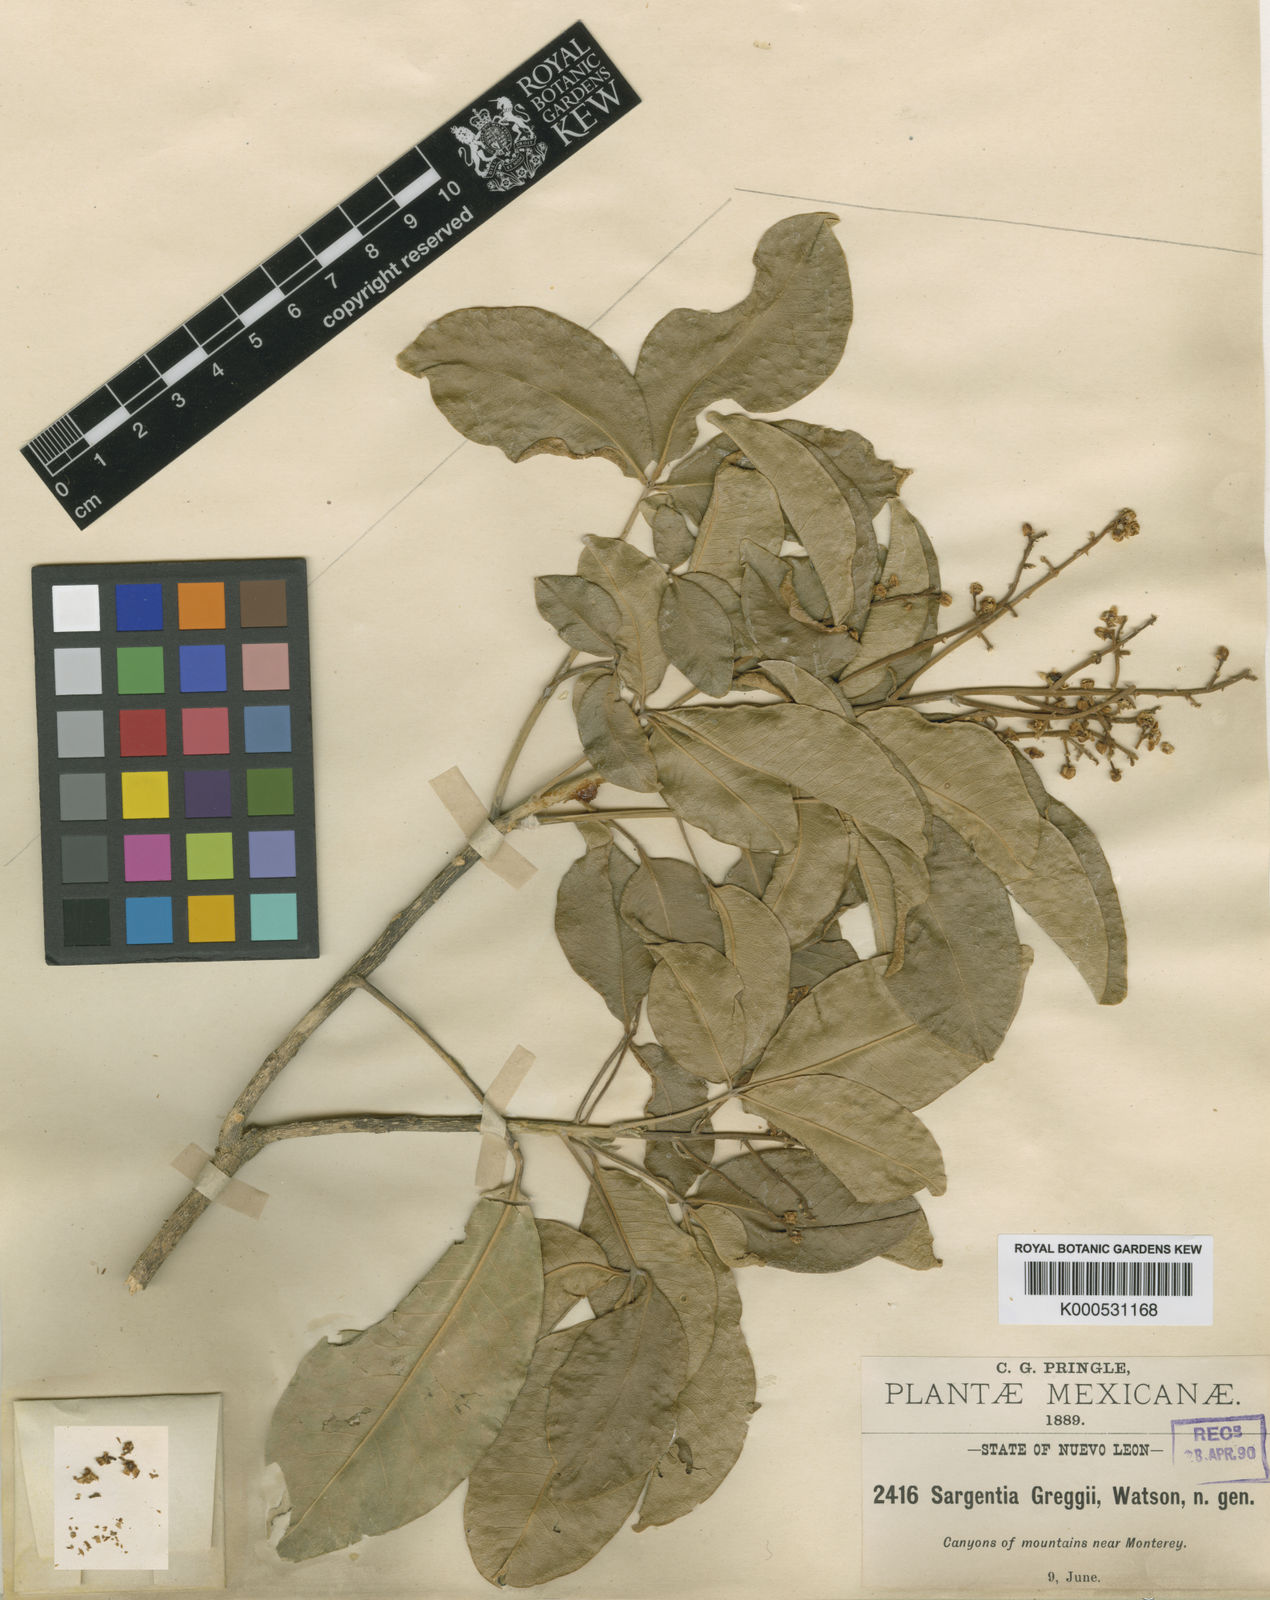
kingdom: Plantae
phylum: Tracheophyta
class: Magnoliopsida
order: Sapindales
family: Rutaceae
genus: Esenbeckia
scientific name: Esenbeckia berlandieri
